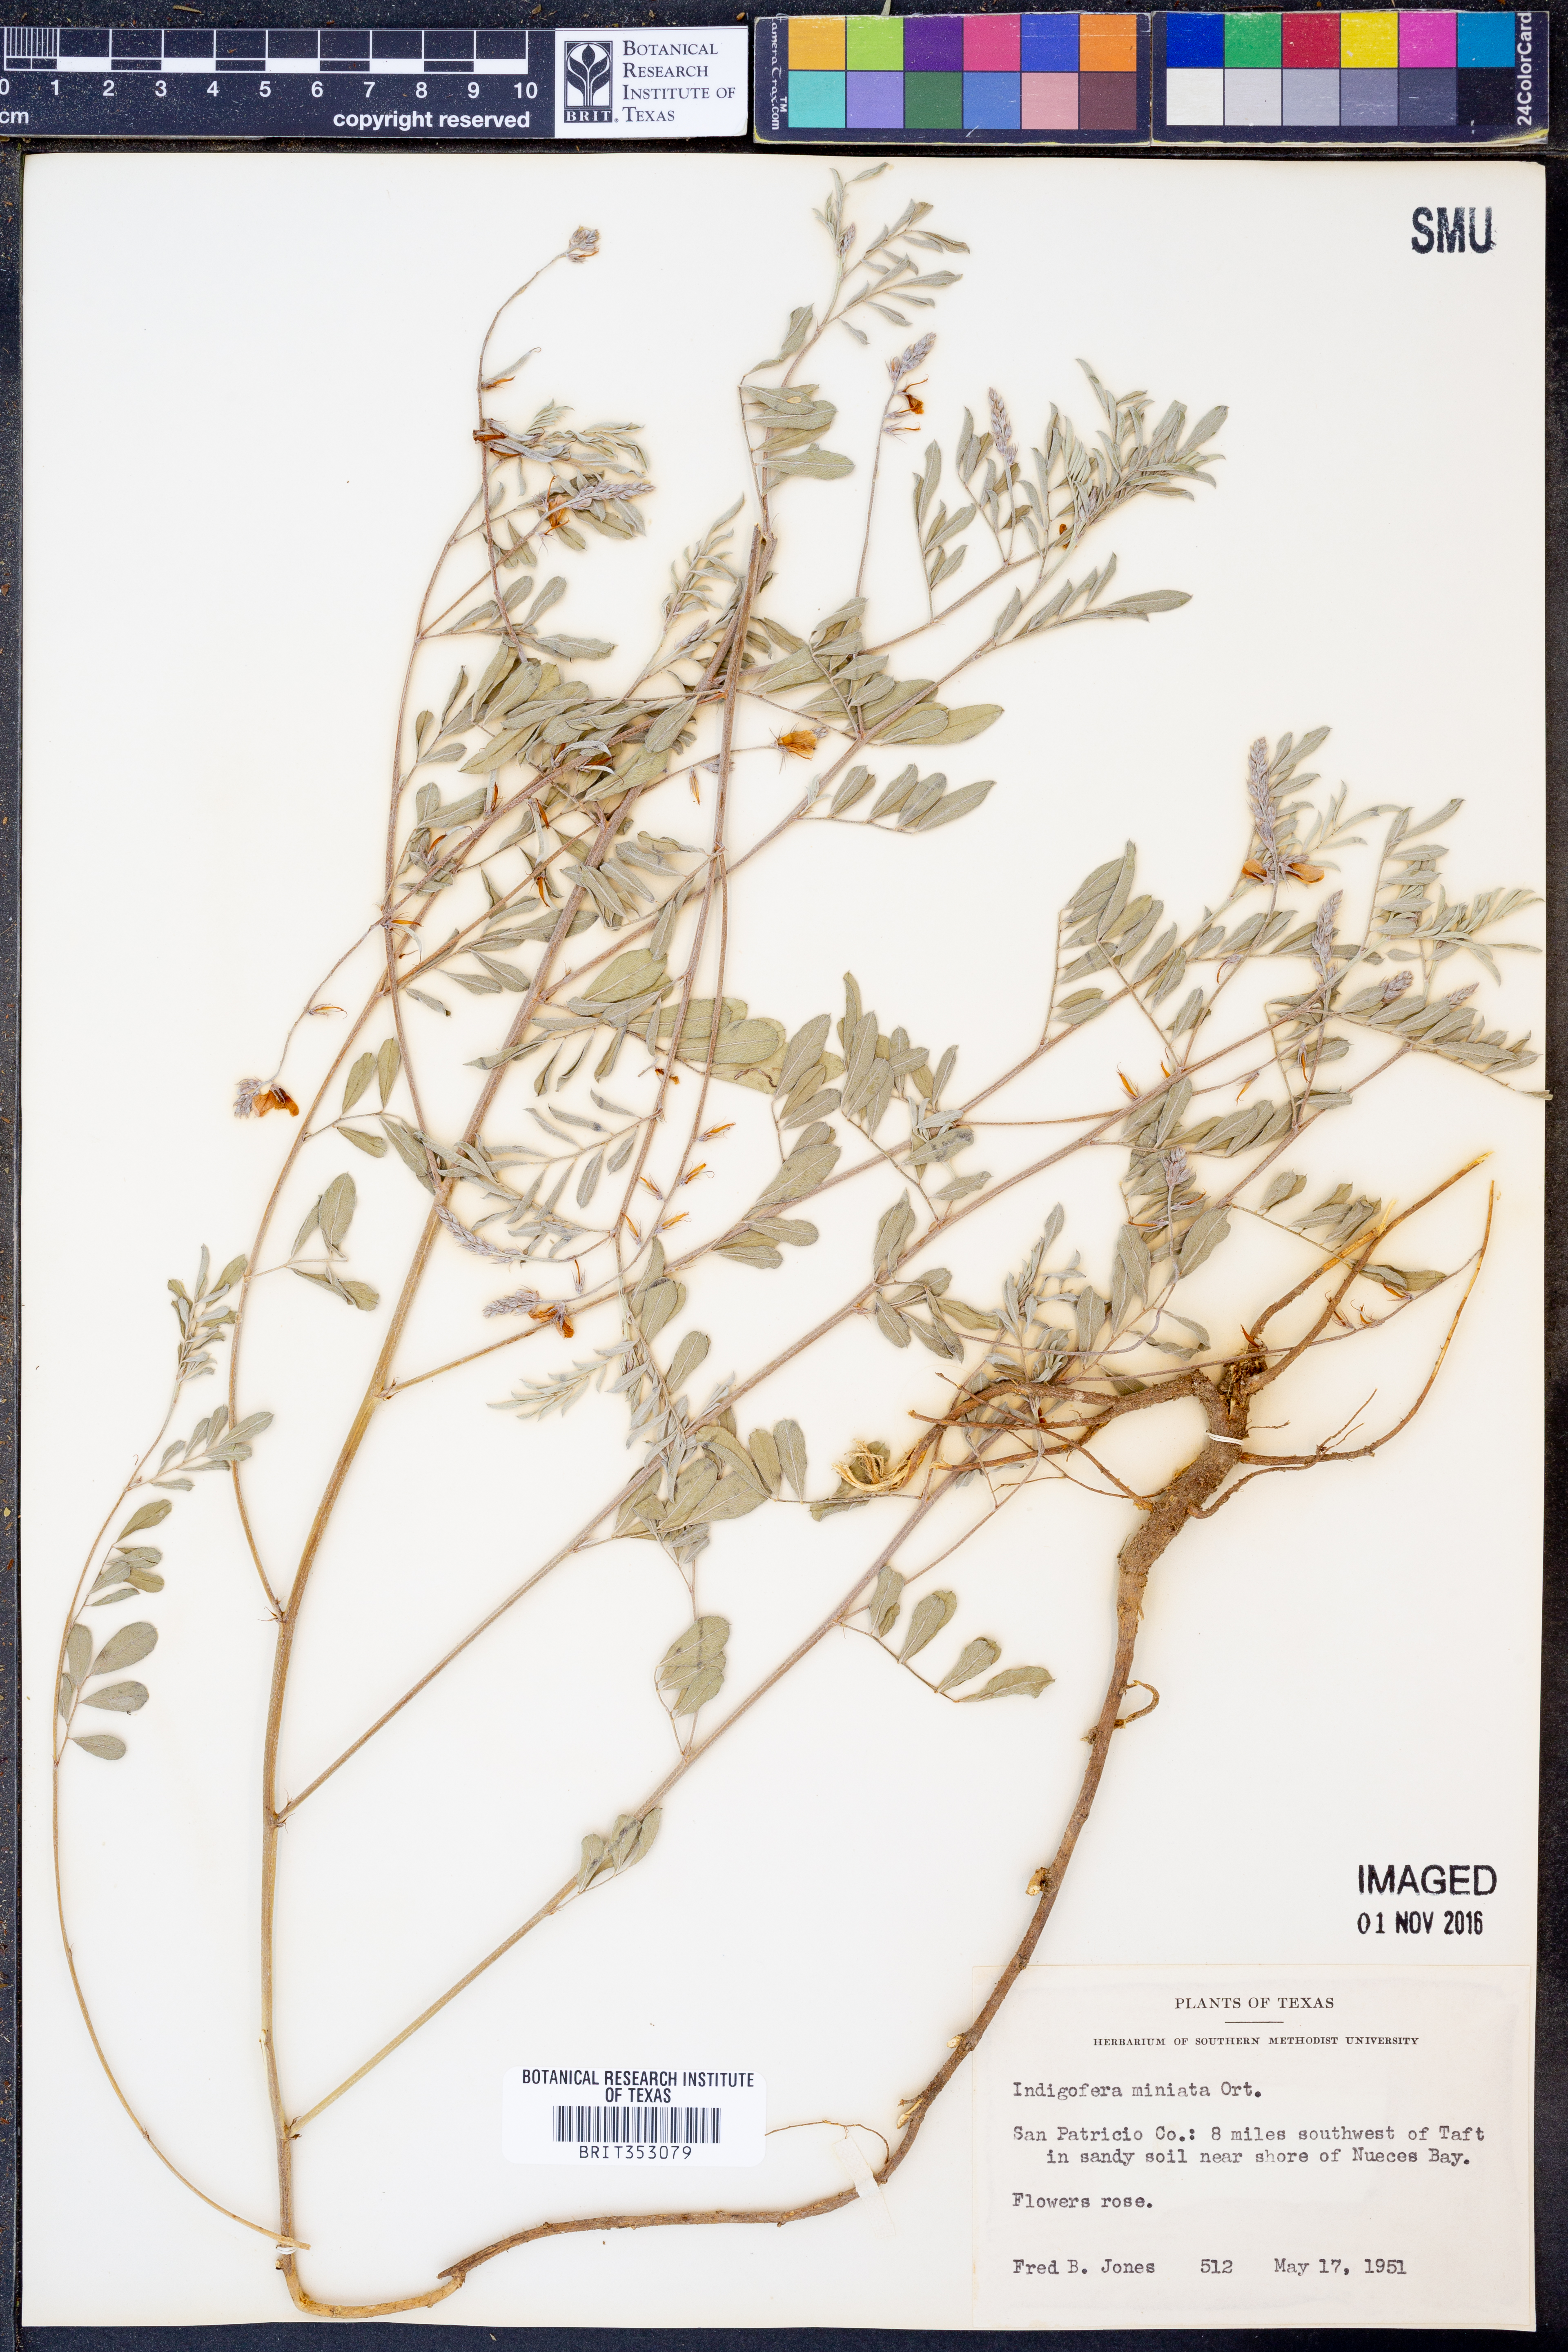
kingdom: Plantae
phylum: Tracheophyta
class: Magnoliopsida
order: Fabales
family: Fabaceae
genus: Indigofera
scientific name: Indigofera miniata
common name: Coast indigo
